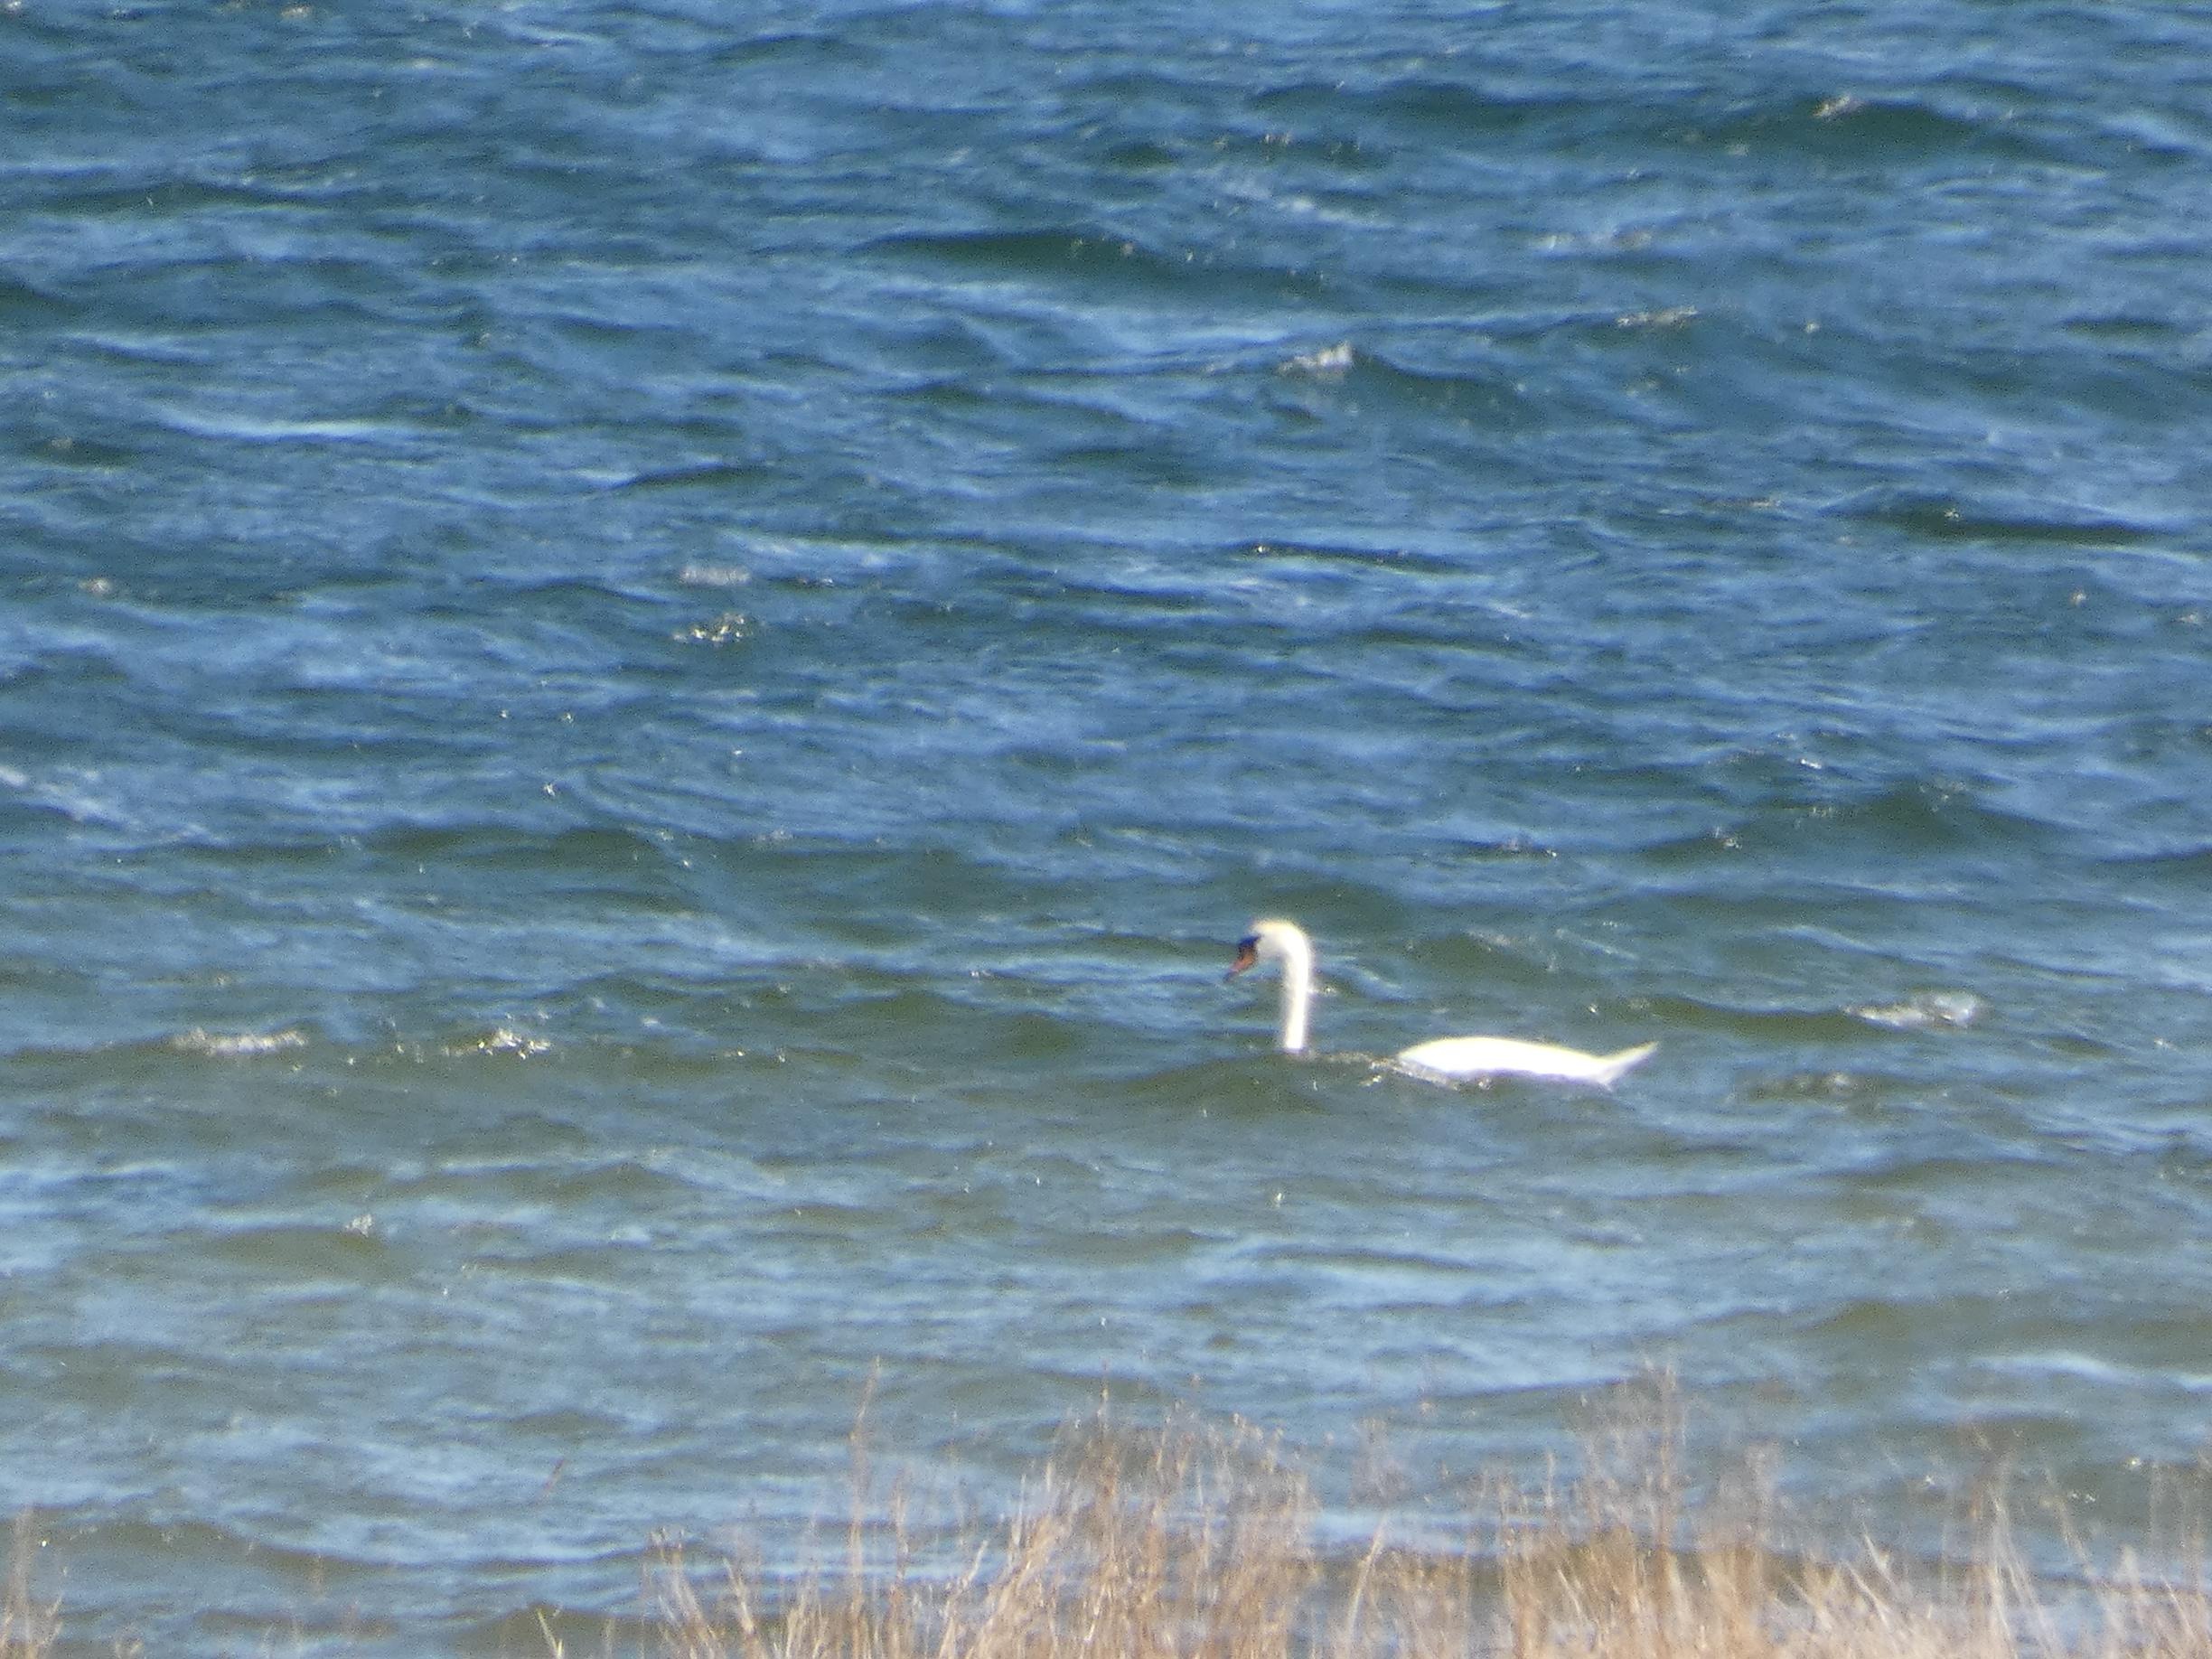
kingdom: Animalia
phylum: Chordata
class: Aves
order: Anseriformes
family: Anatidae
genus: Cygnus
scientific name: Cygnus olor
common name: Knopsvane
